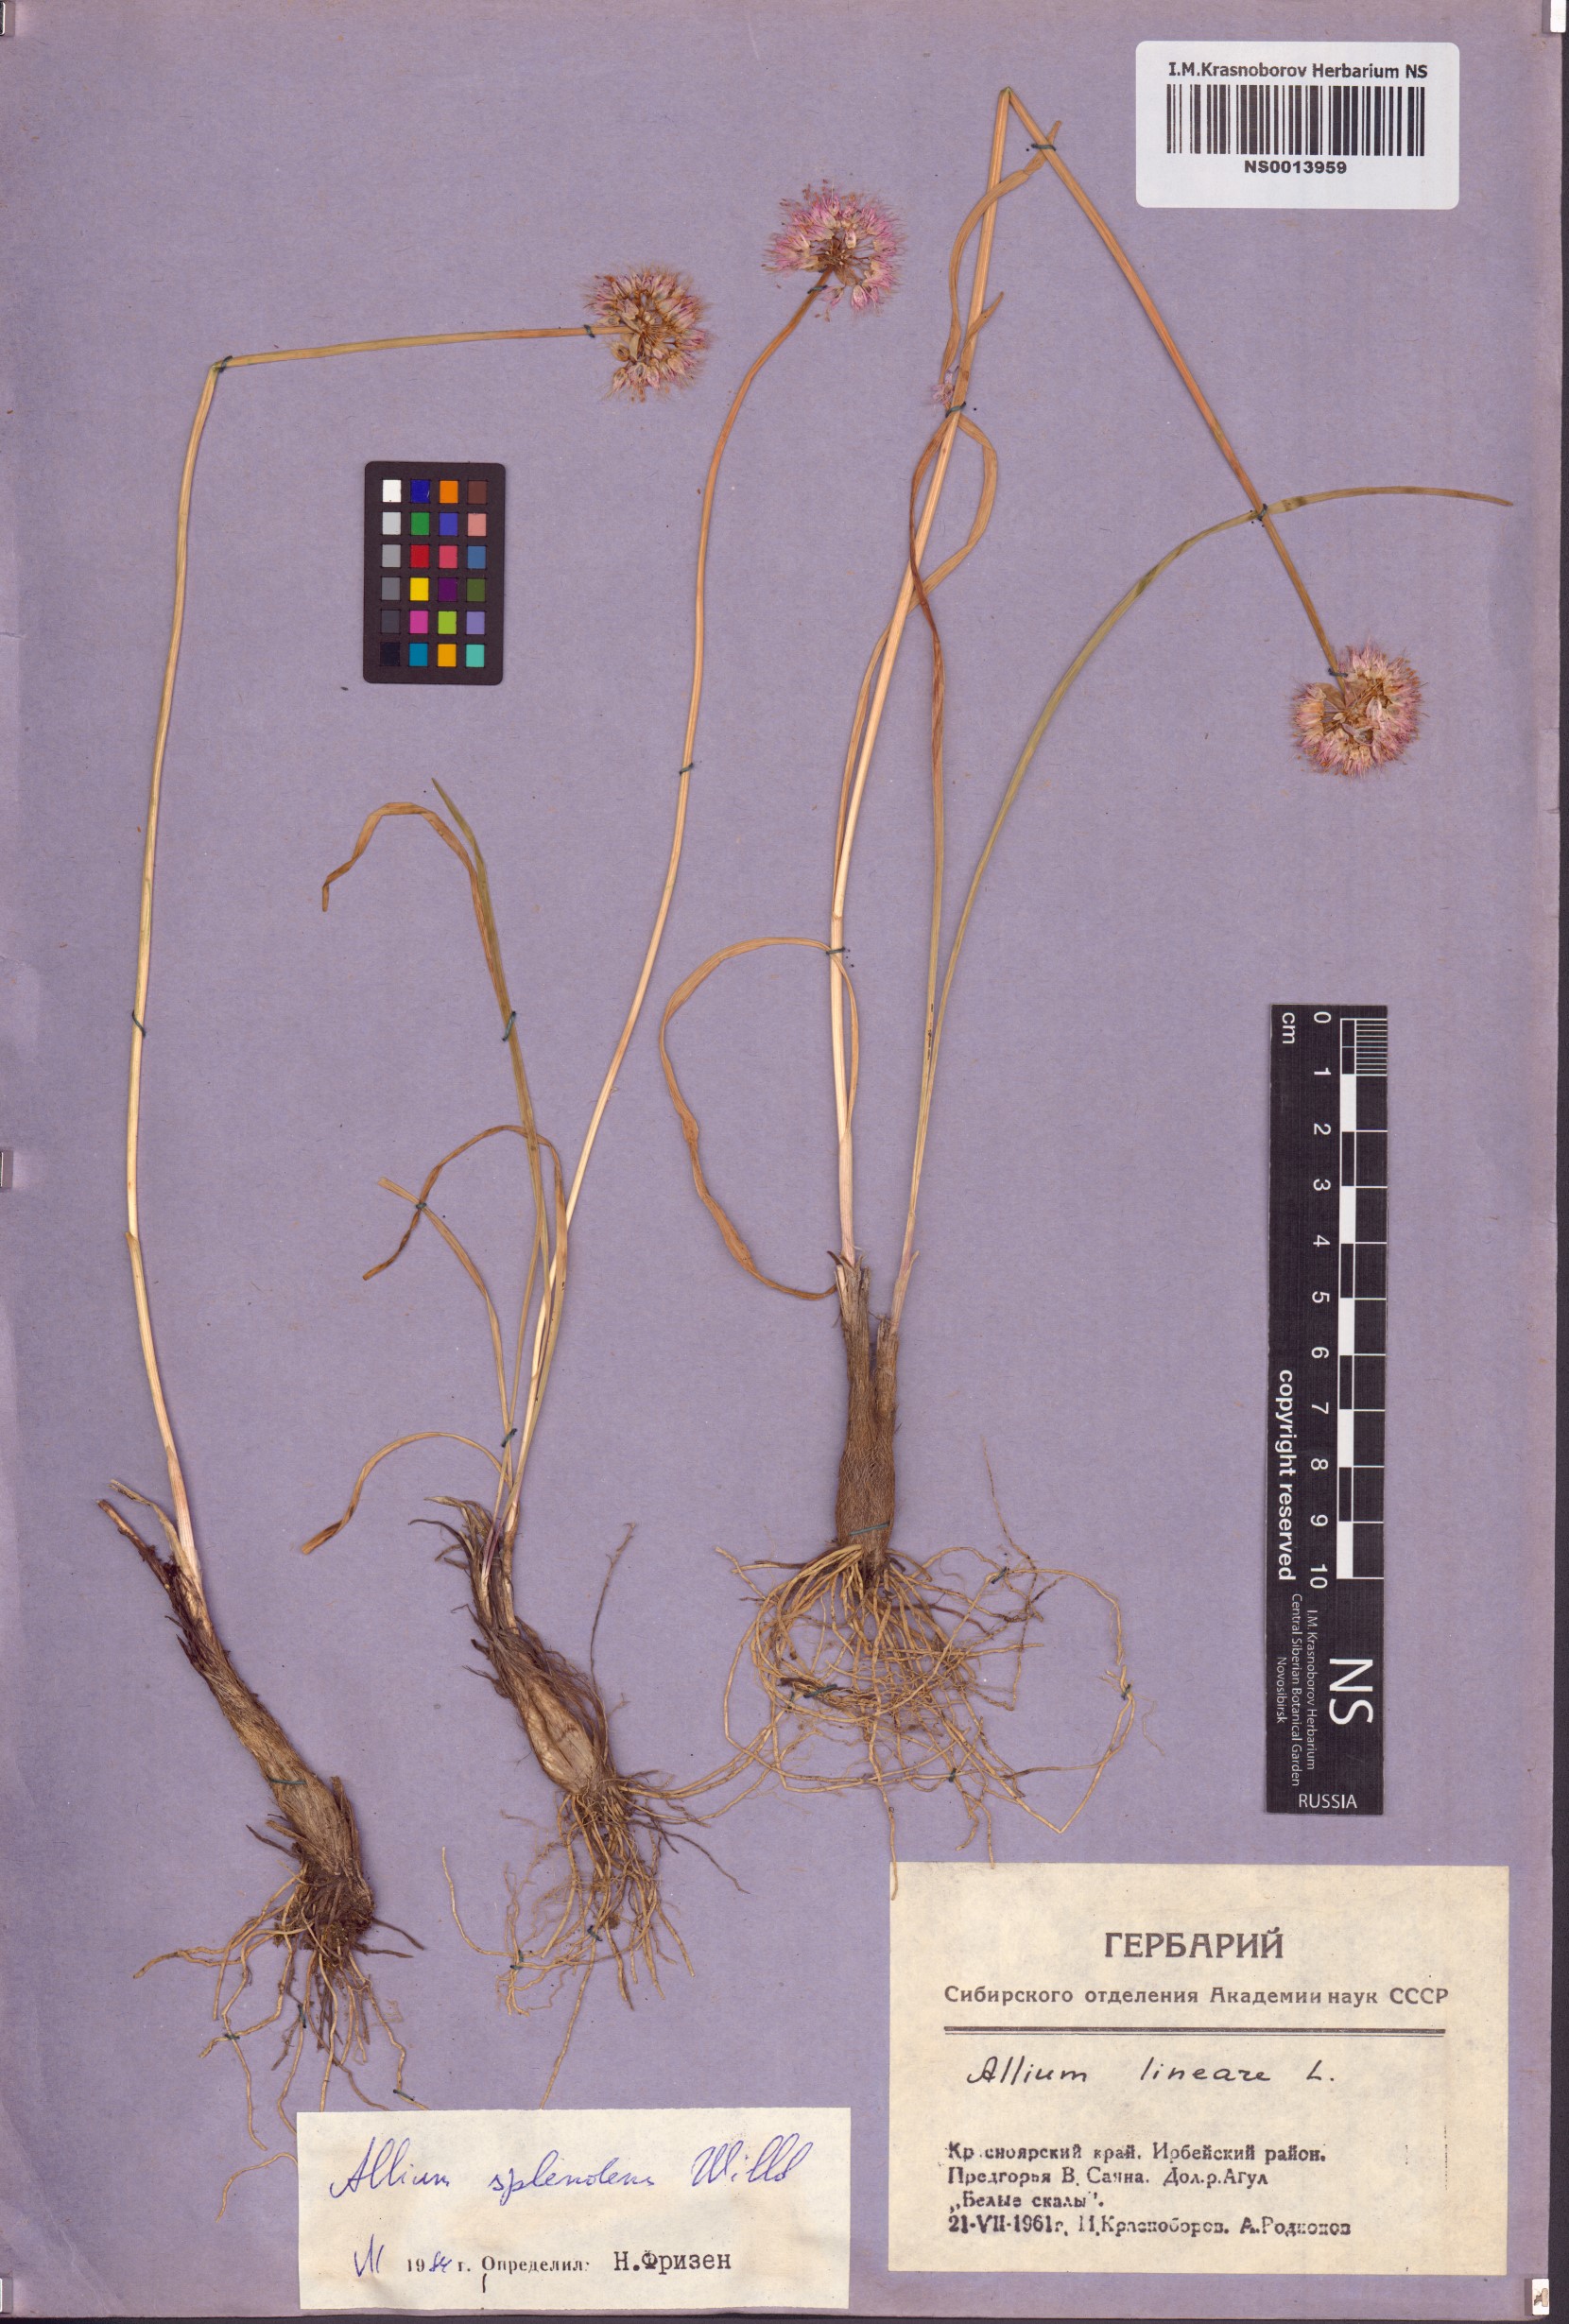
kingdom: Plantae
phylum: Tracheophyta
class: Liliopsida
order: Asparagales
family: Amaryllidaceae
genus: Allium
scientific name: Allium splendens
